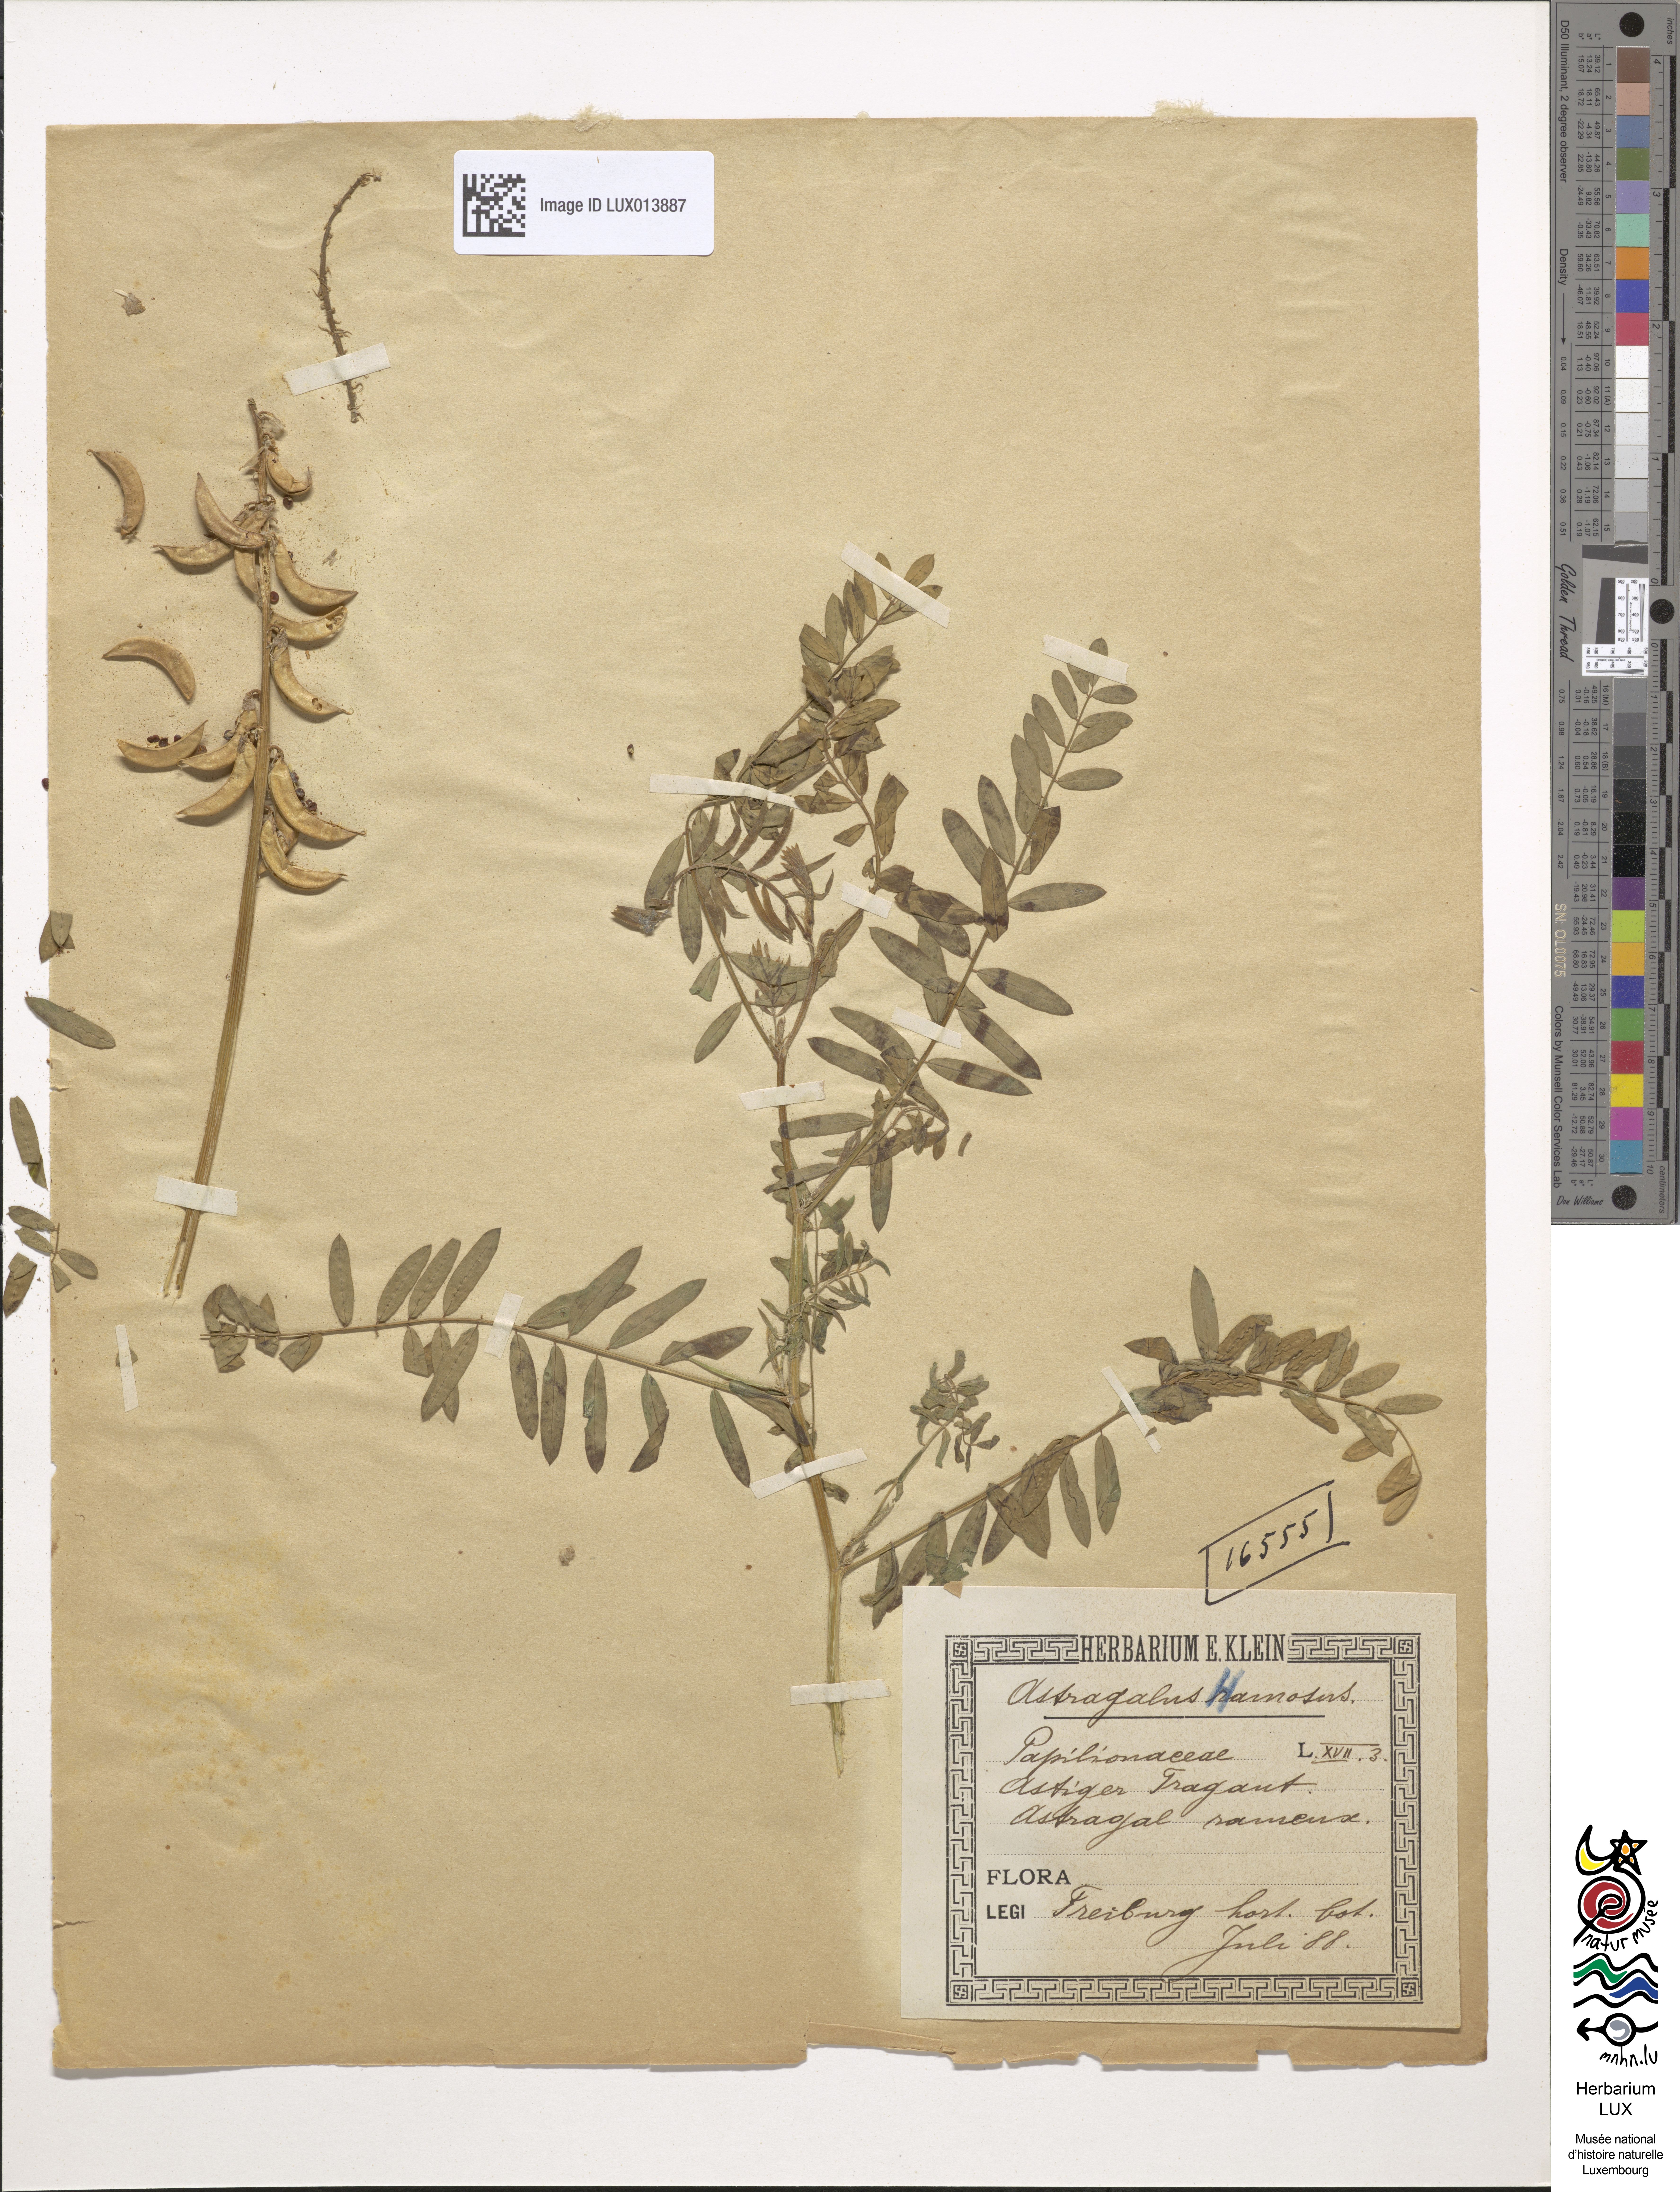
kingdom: Plantae
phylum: Tracheophyta
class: Magnoliopsida
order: Fabales
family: Fabaceae
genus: Astragalus
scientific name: Astragalus hamosus
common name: European milkvetch
